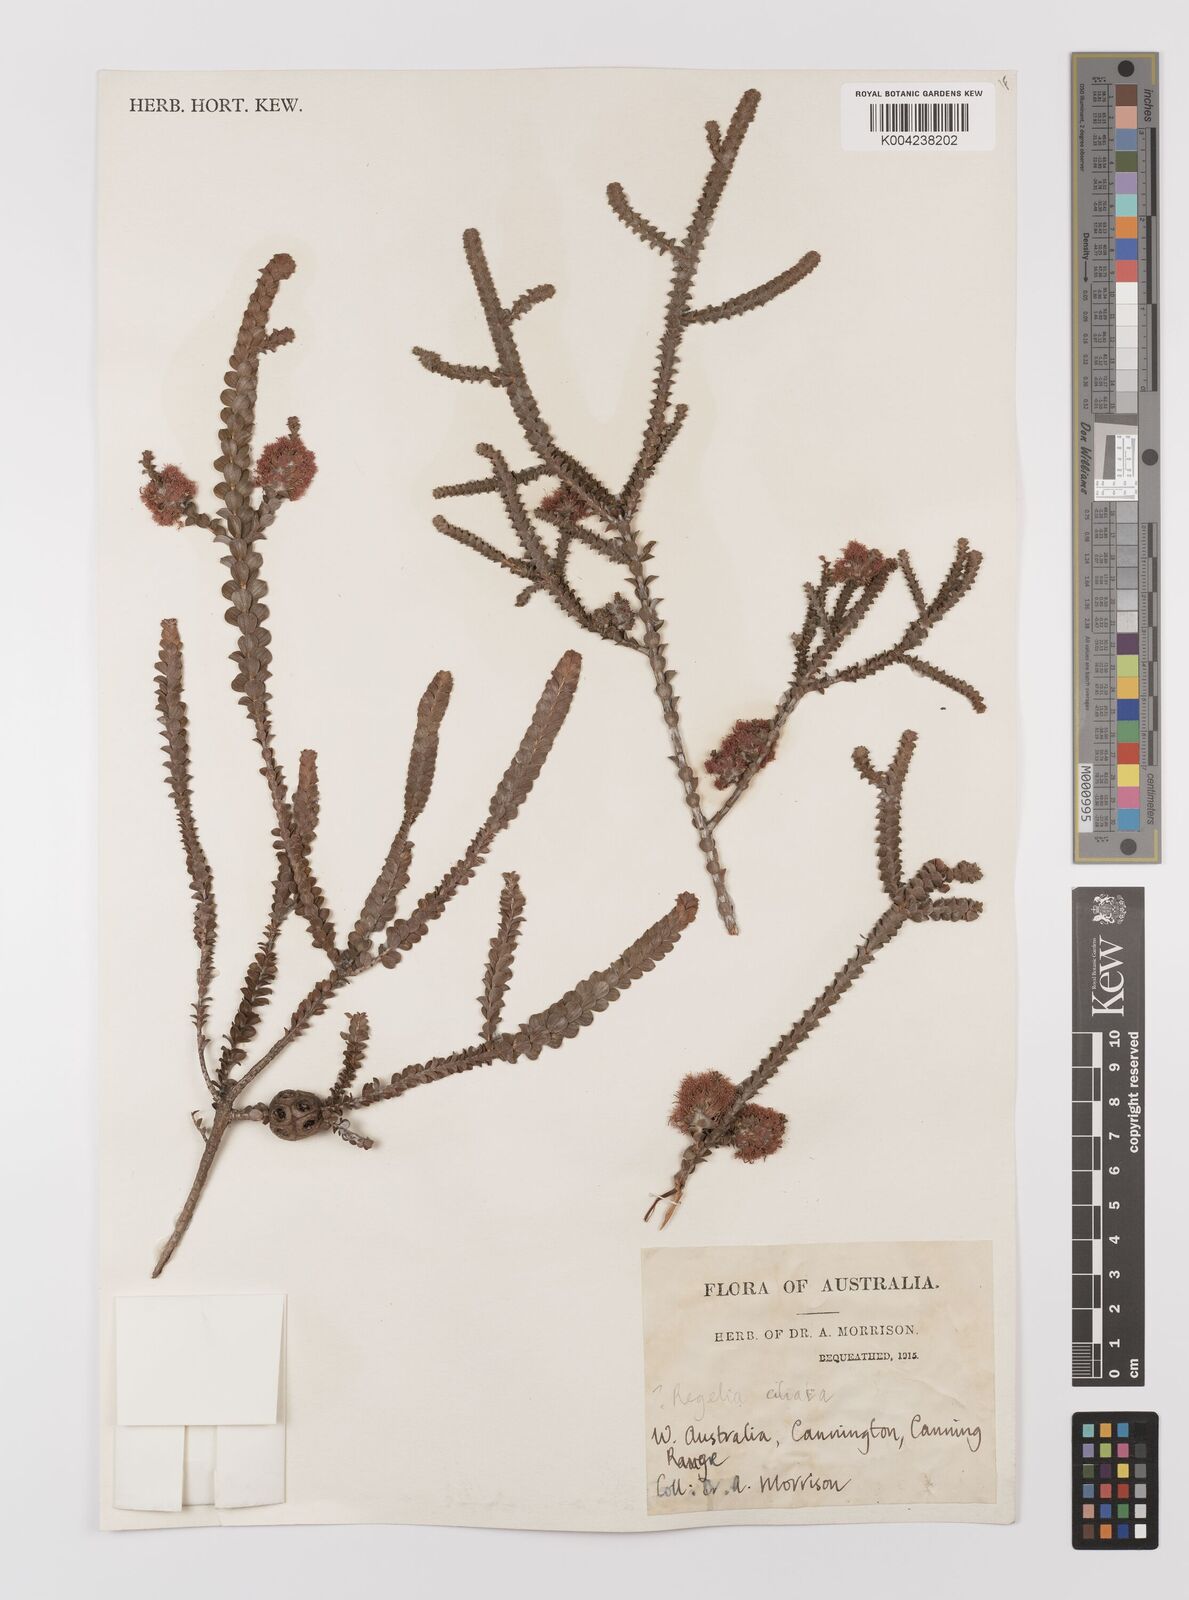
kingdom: Plantae
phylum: Tracheophyta
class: Magnoliopsida
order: Myrtales
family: Myrtaceae
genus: Melaleuca
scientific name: Melaleuca crossota
